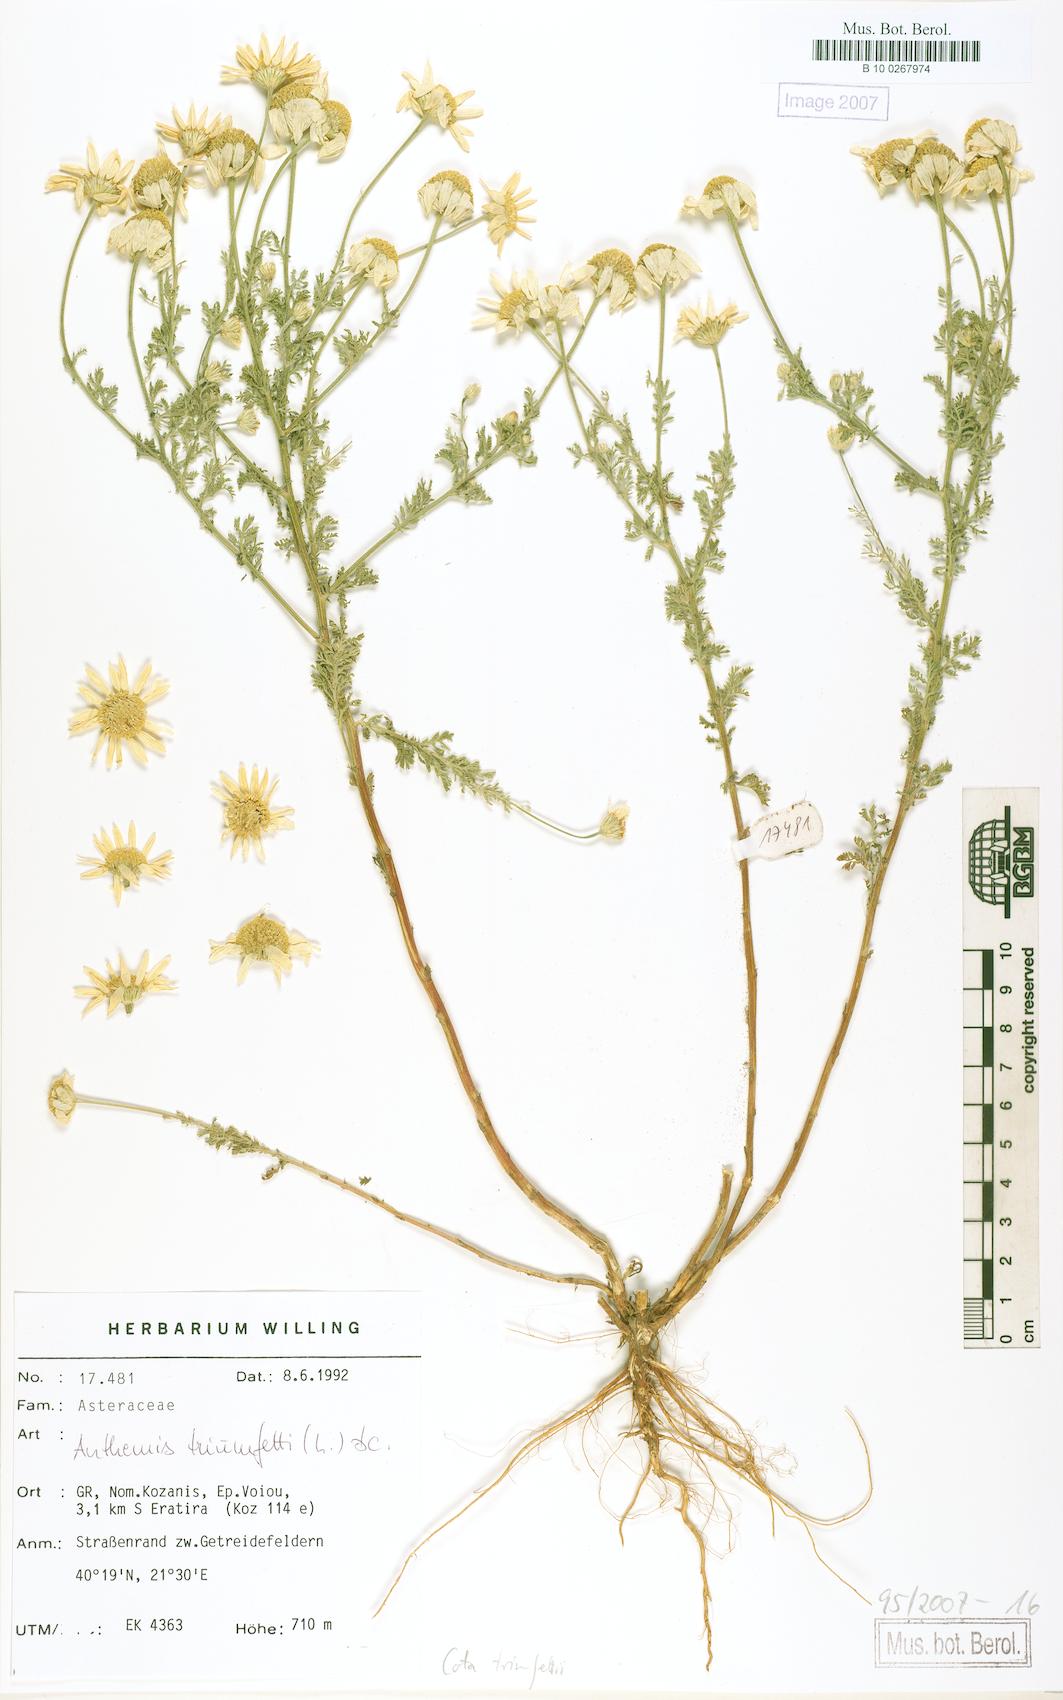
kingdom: Plantae
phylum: Tracheophyta
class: Magnoliopsida
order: Asterales
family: Asteraceae
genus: Cota
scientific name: Cota altissima
